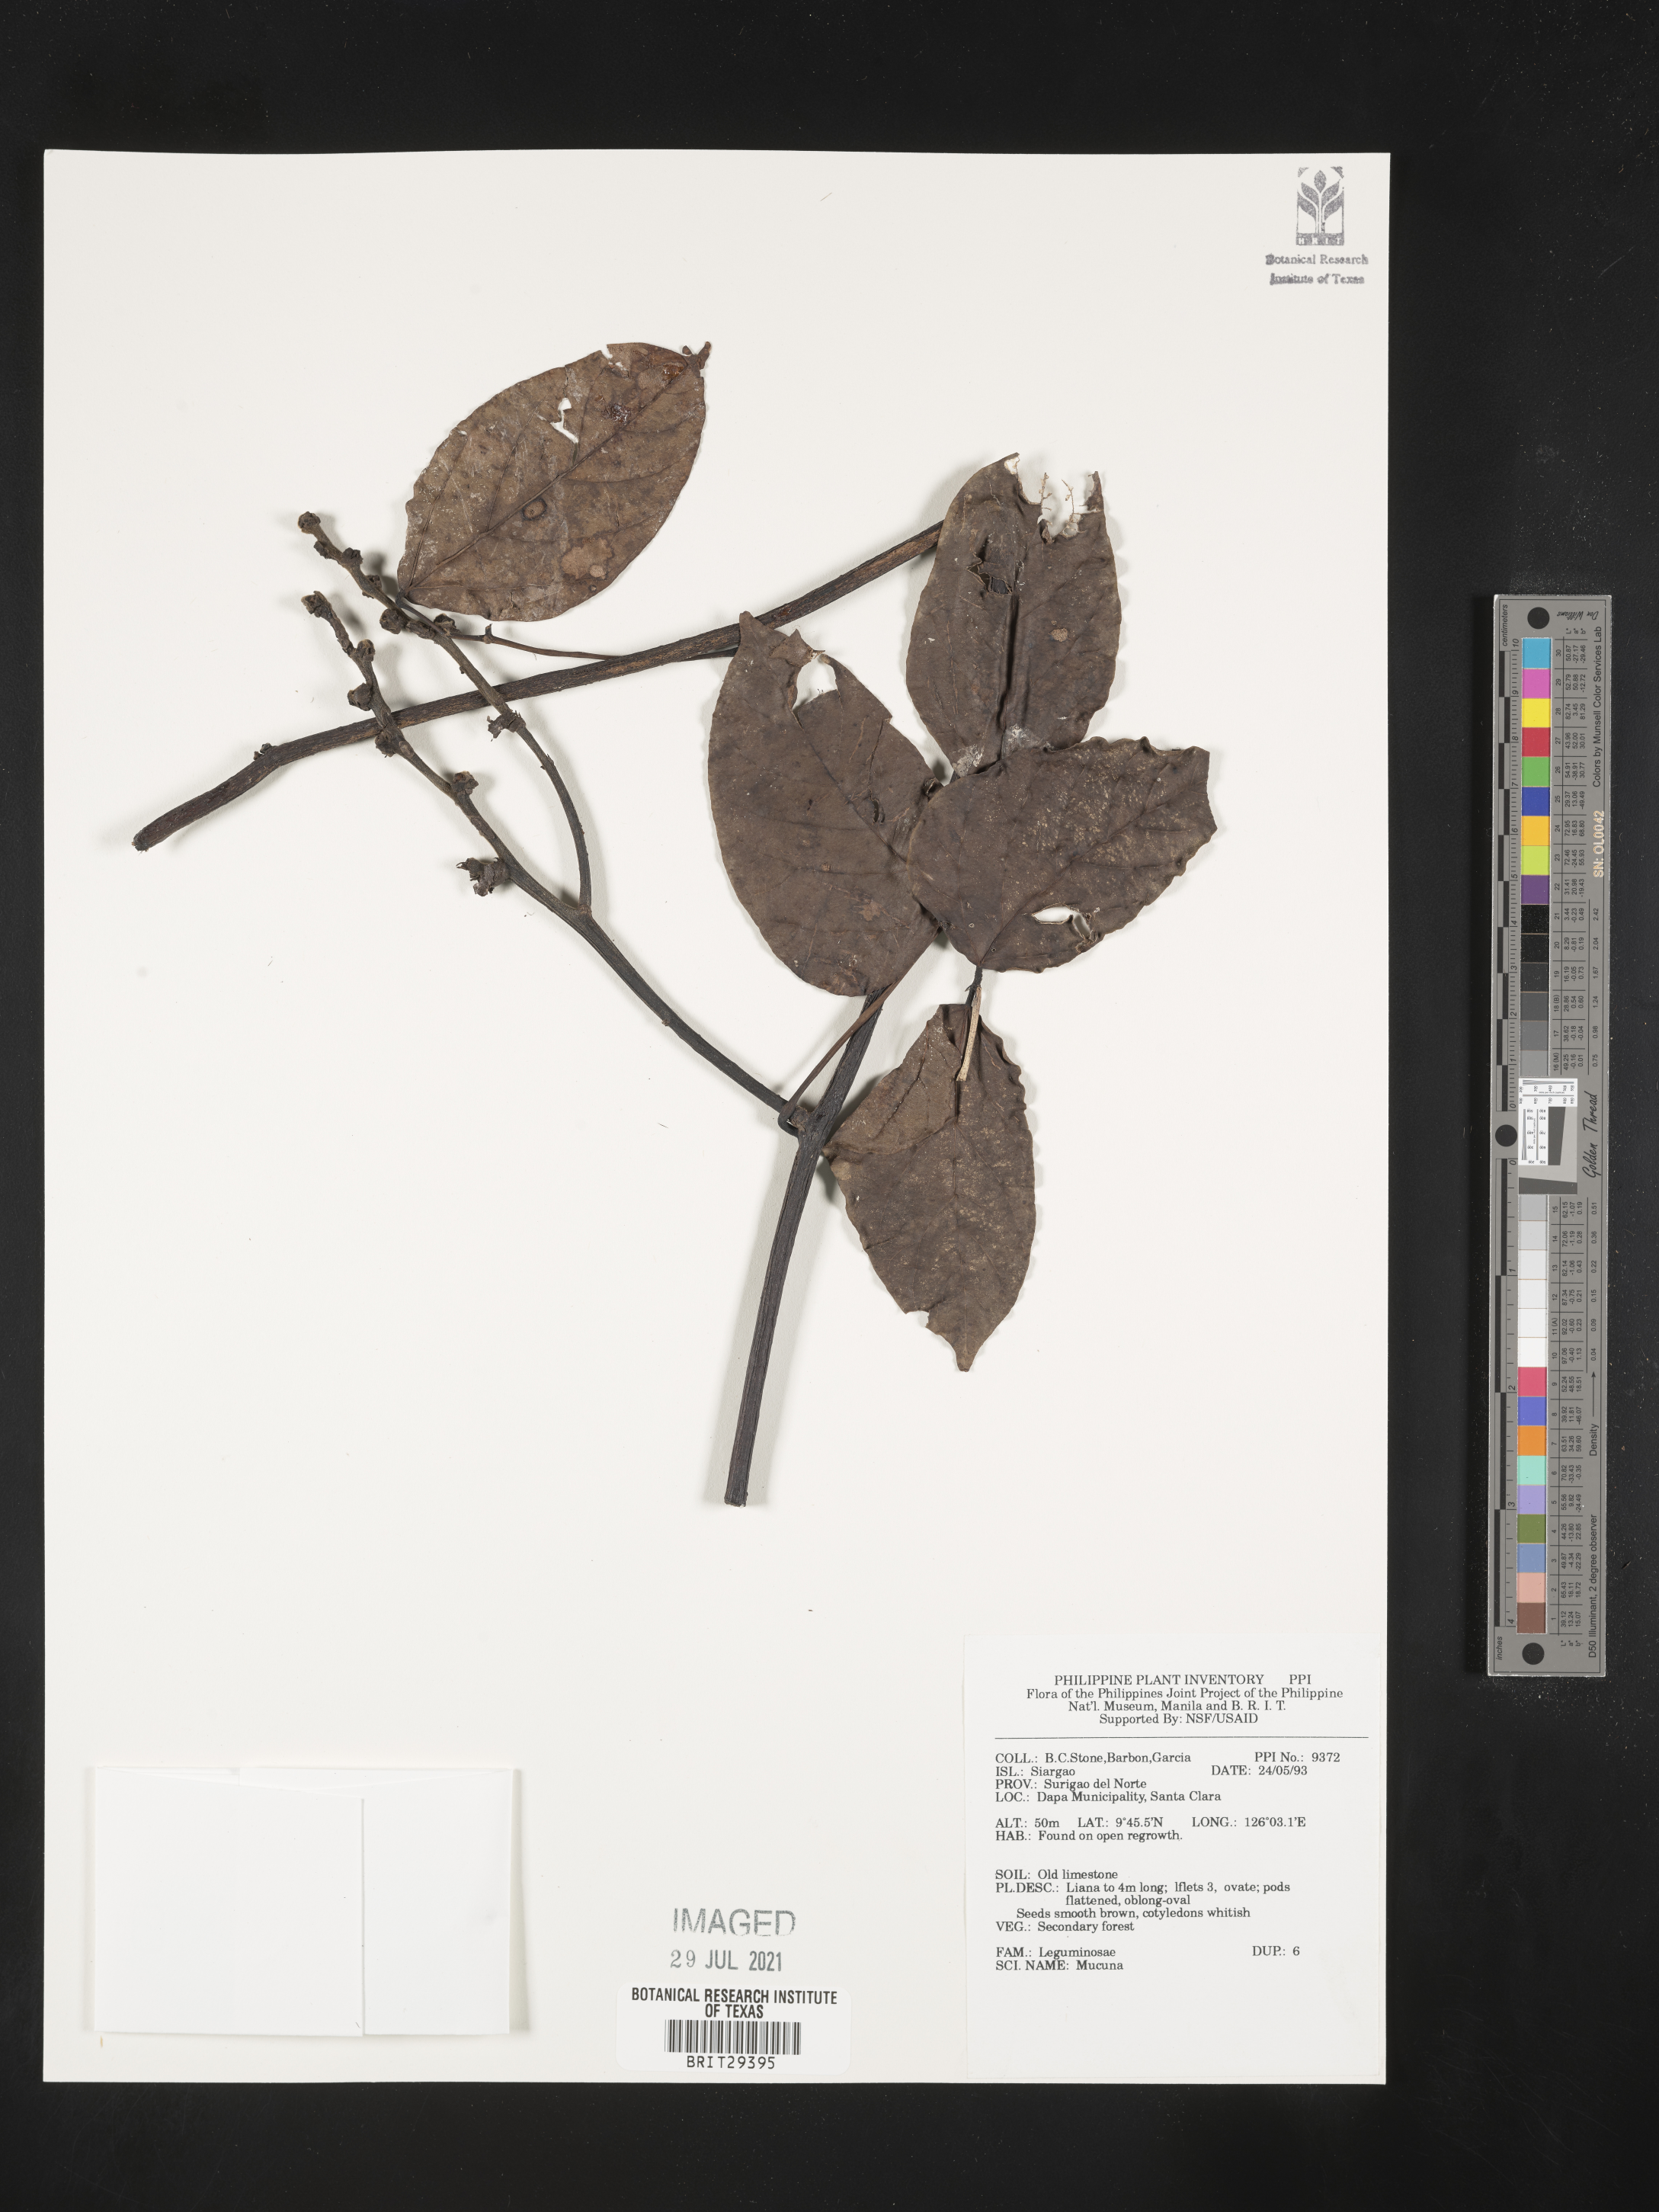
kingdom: Plantae
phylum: Tracheophyta
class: Magnoliopsida
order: Fabales
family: Fabaceae
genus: Mucuna
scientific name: Mucuna
